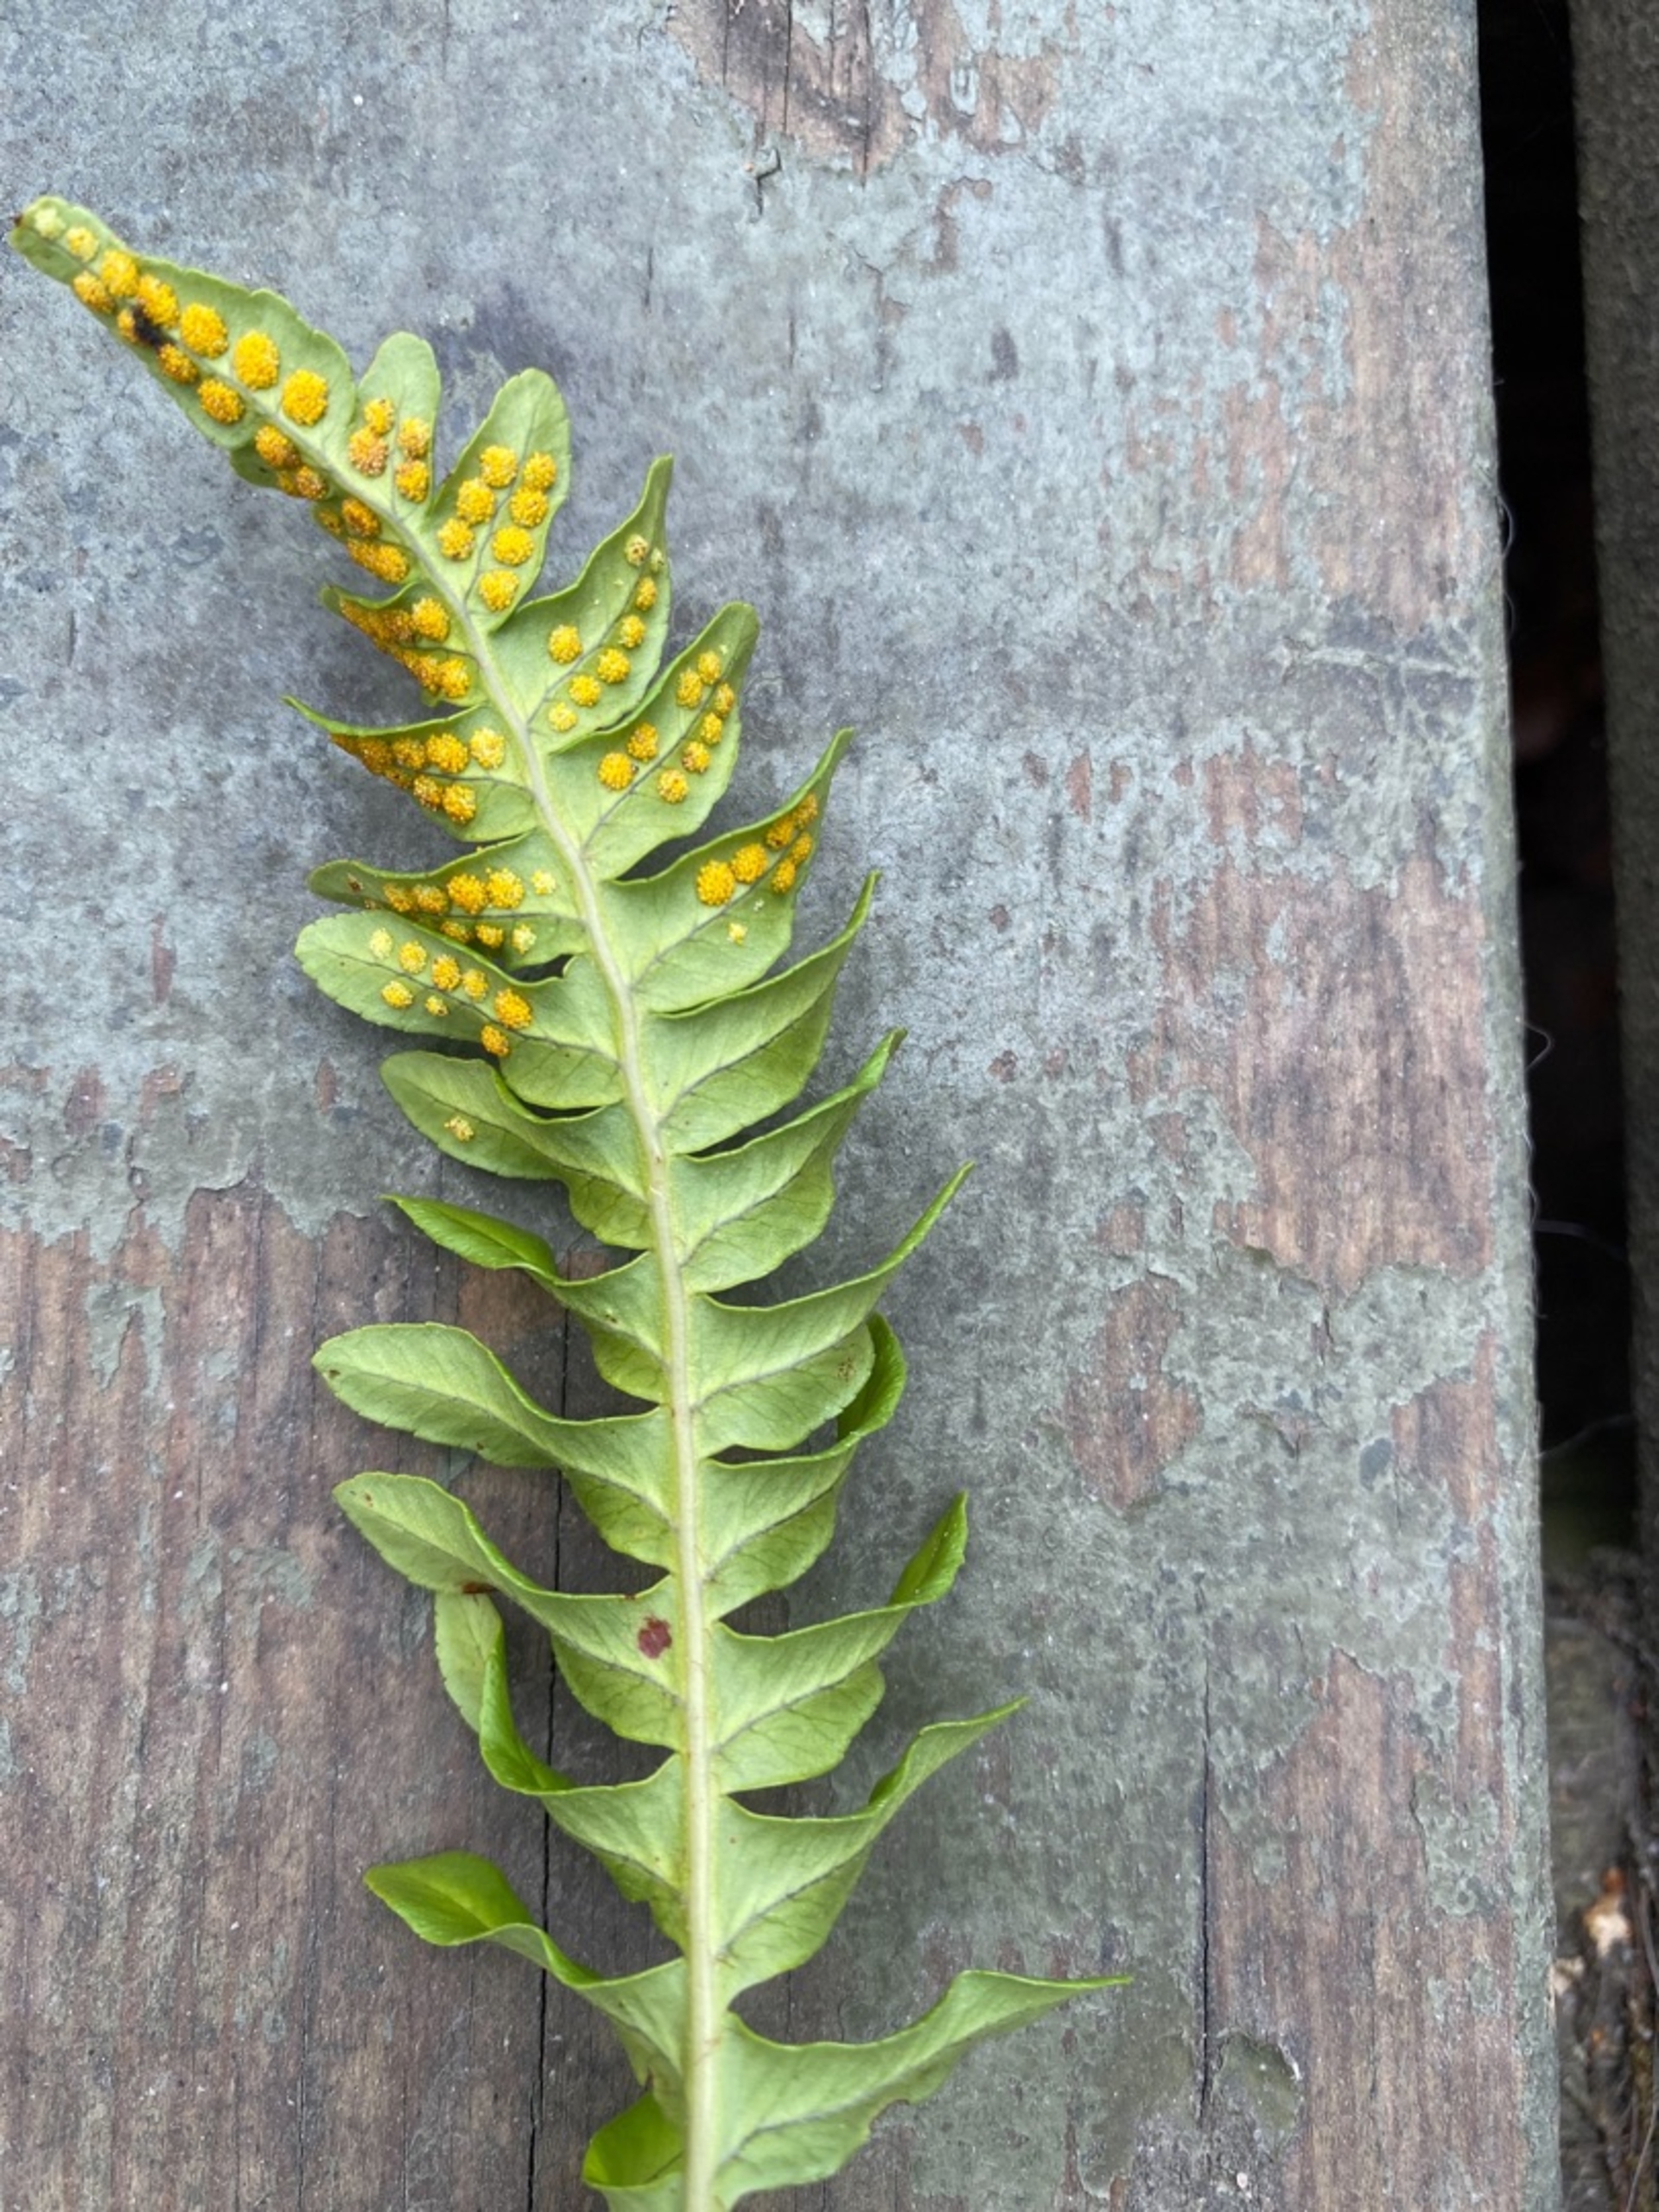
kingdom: Plantae
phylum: Tracheophyta
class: Polypodiopsida
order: Polypodiales
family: Polypodiaceae
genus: Polypodium
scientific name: Polypodium vulgare
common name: Almindelig engelsød
